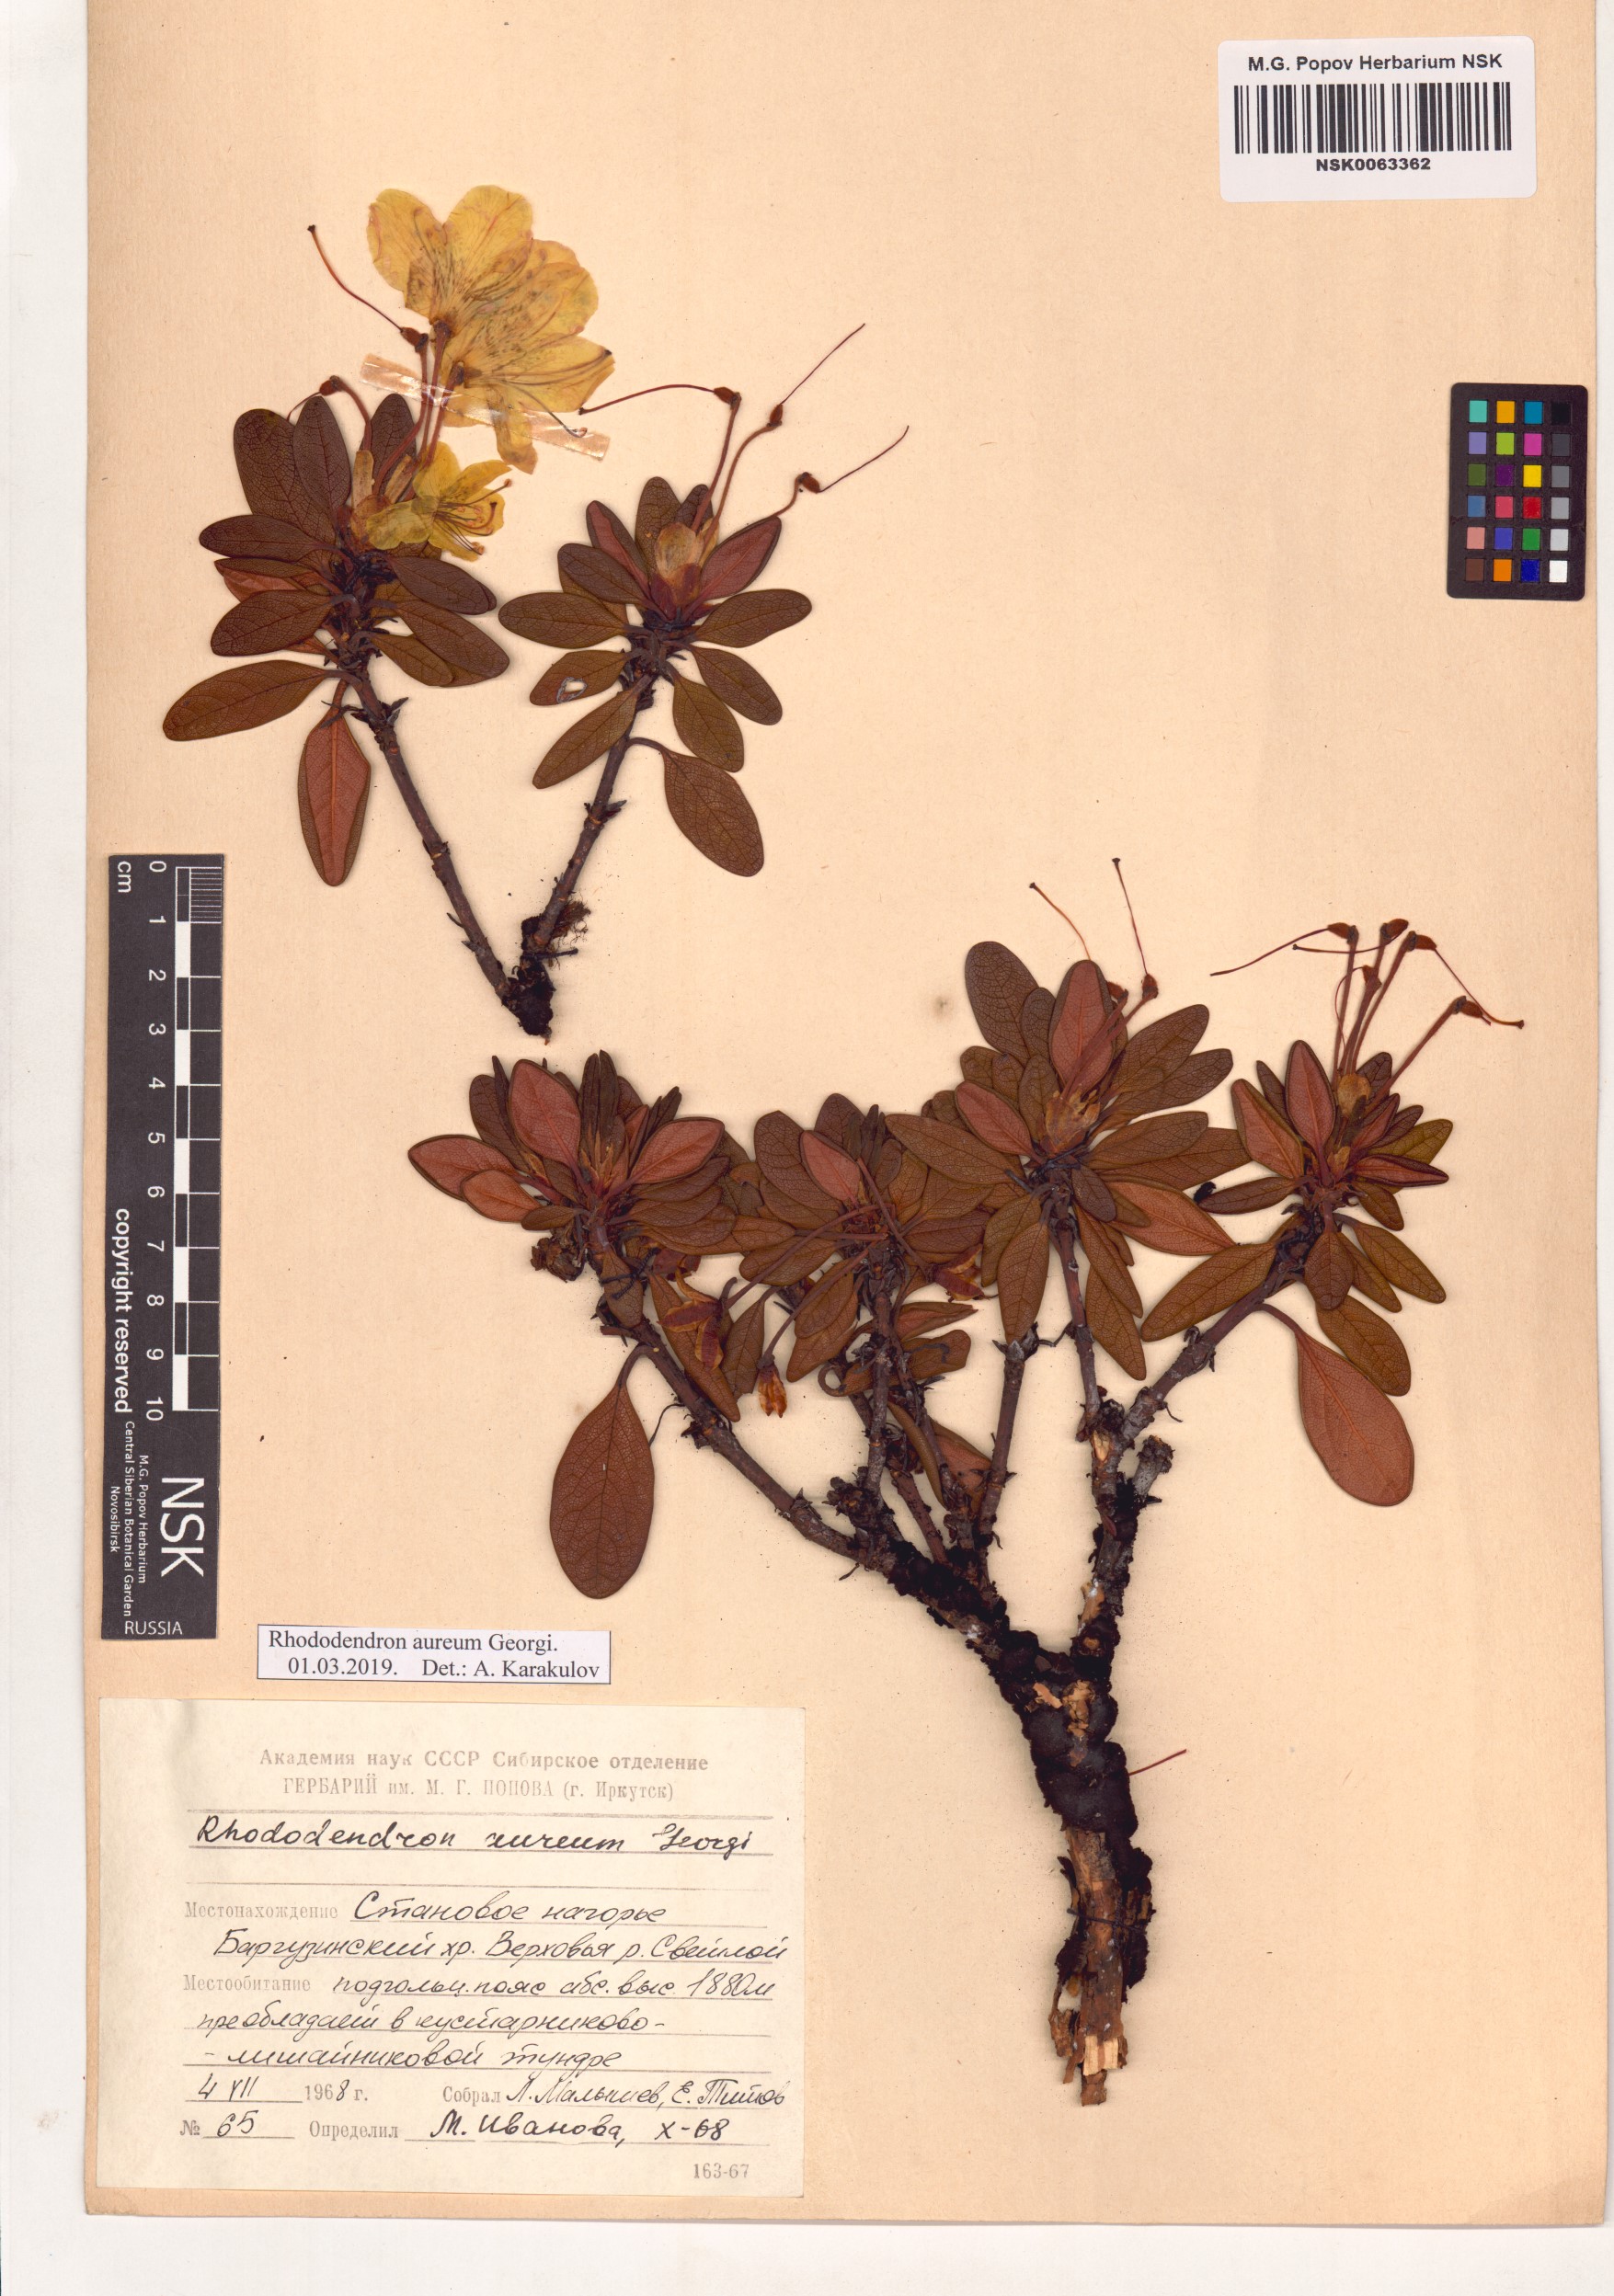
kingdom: Plantae
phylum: Tracheophyta
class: Magnoliopsida
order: Ericales
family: Ericaceae
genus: Rhododendron
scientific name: Rhododendron aureum
